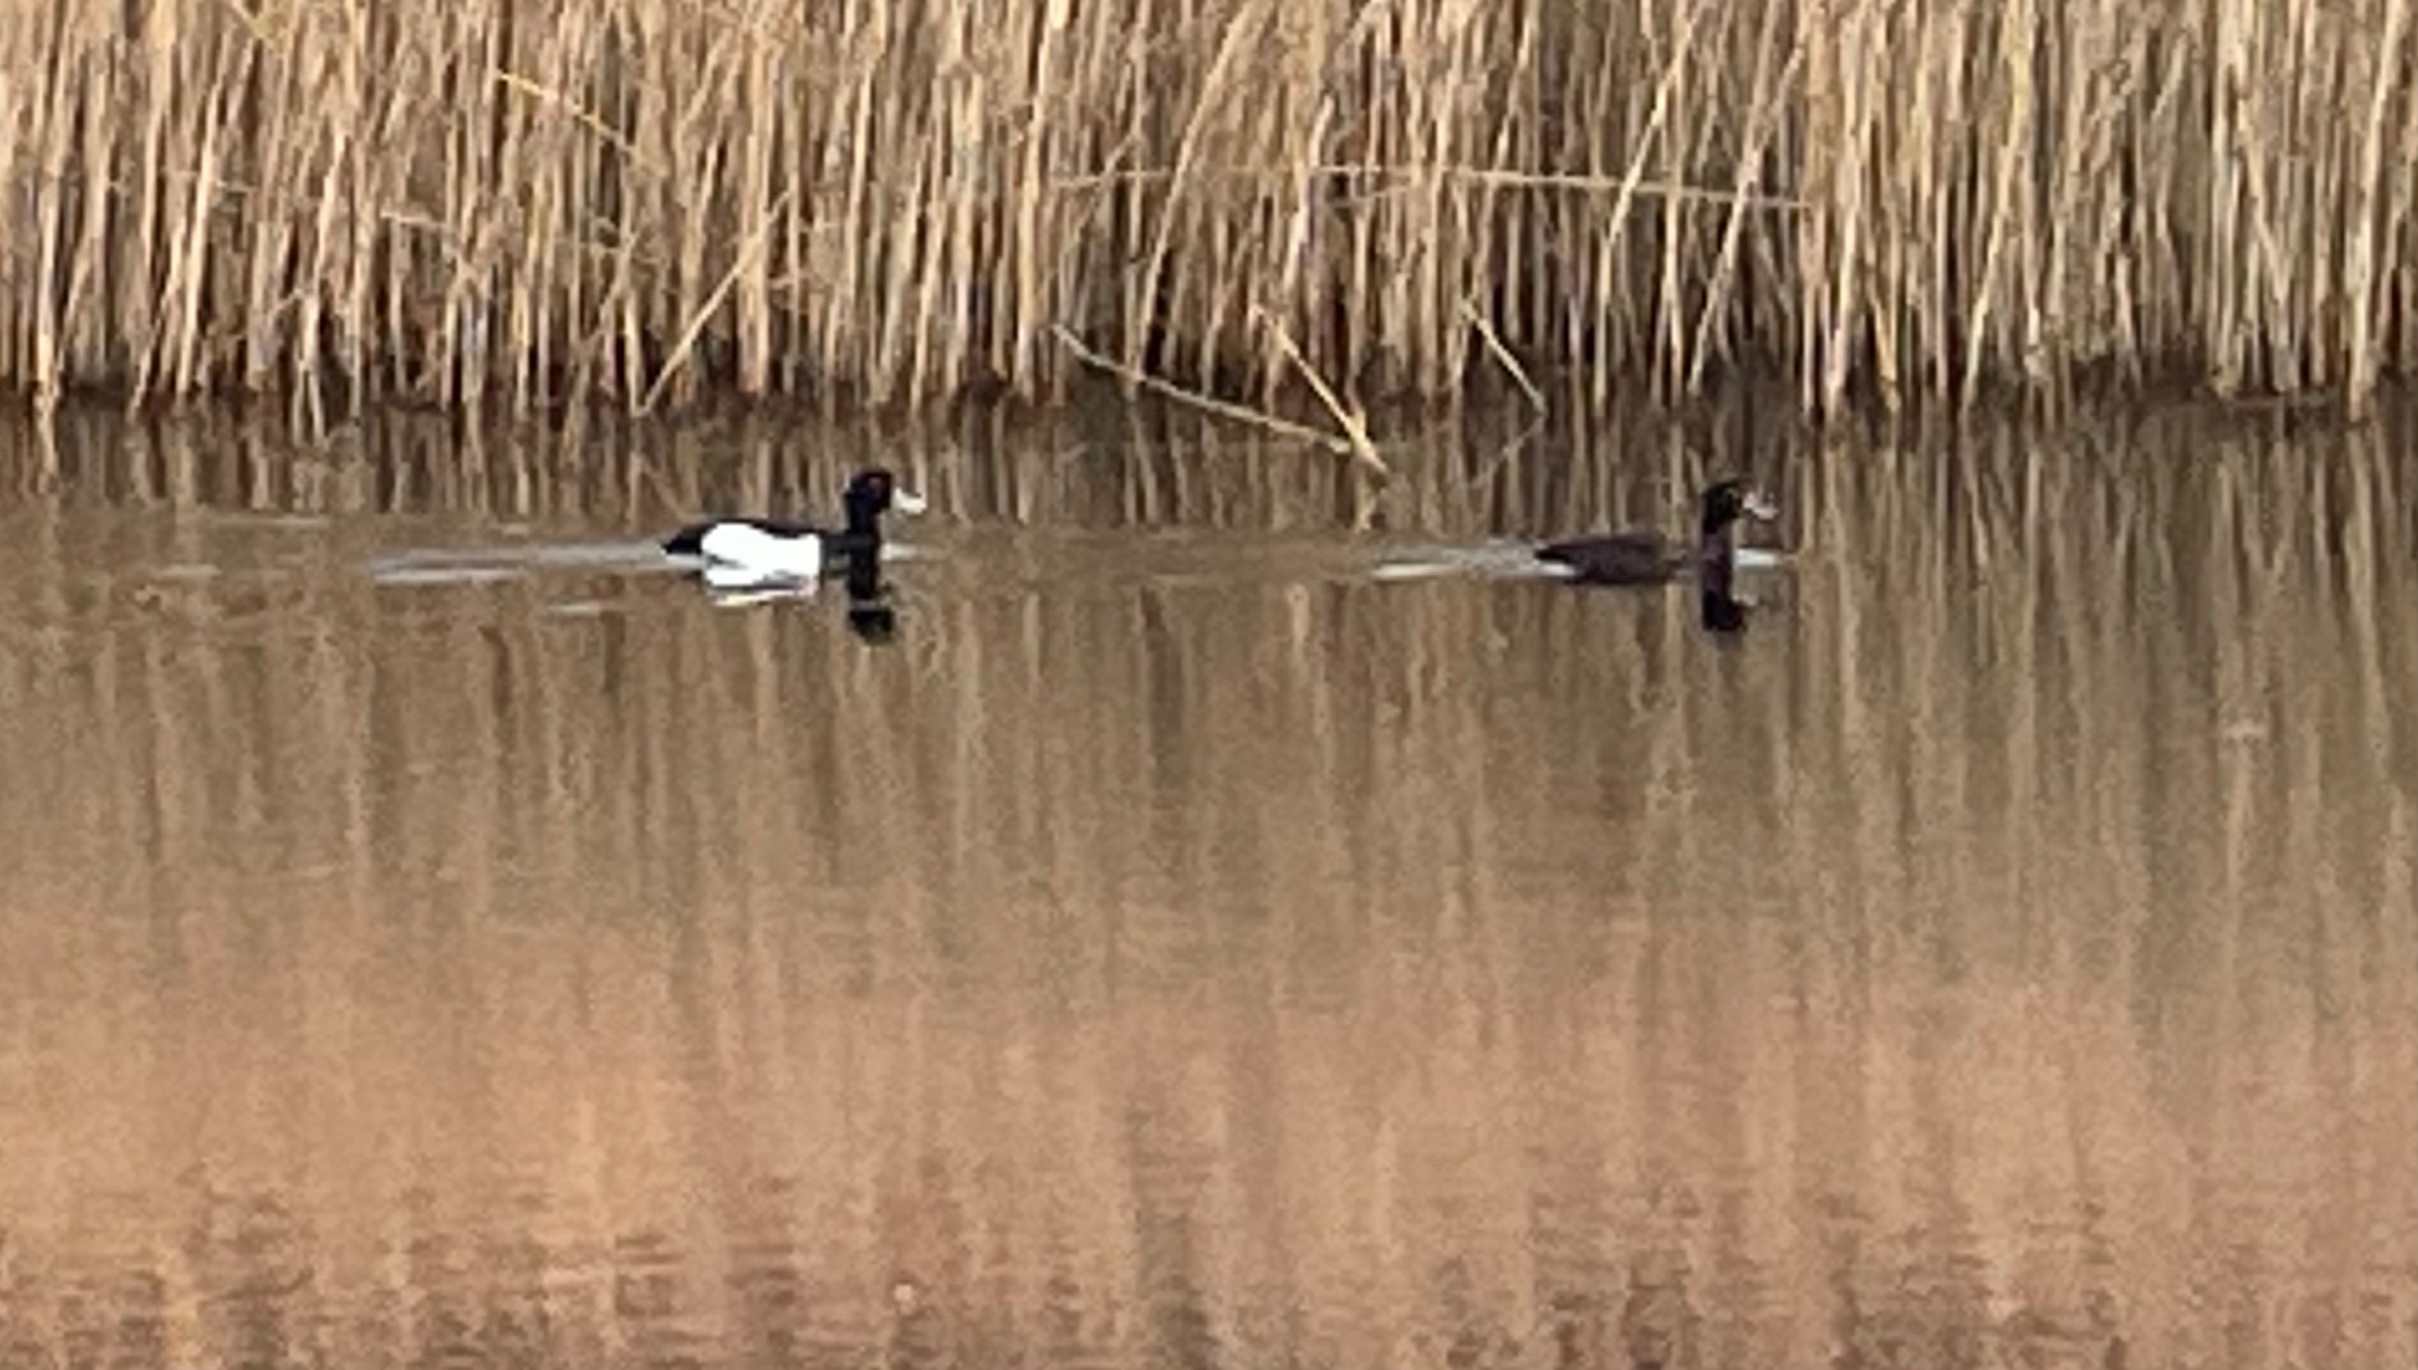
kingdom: Animalia
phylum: Chordata
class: Aves
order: Anseriformes
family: Anatidae
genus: Aythya
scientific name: Aythya fuligula
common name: Troldand
